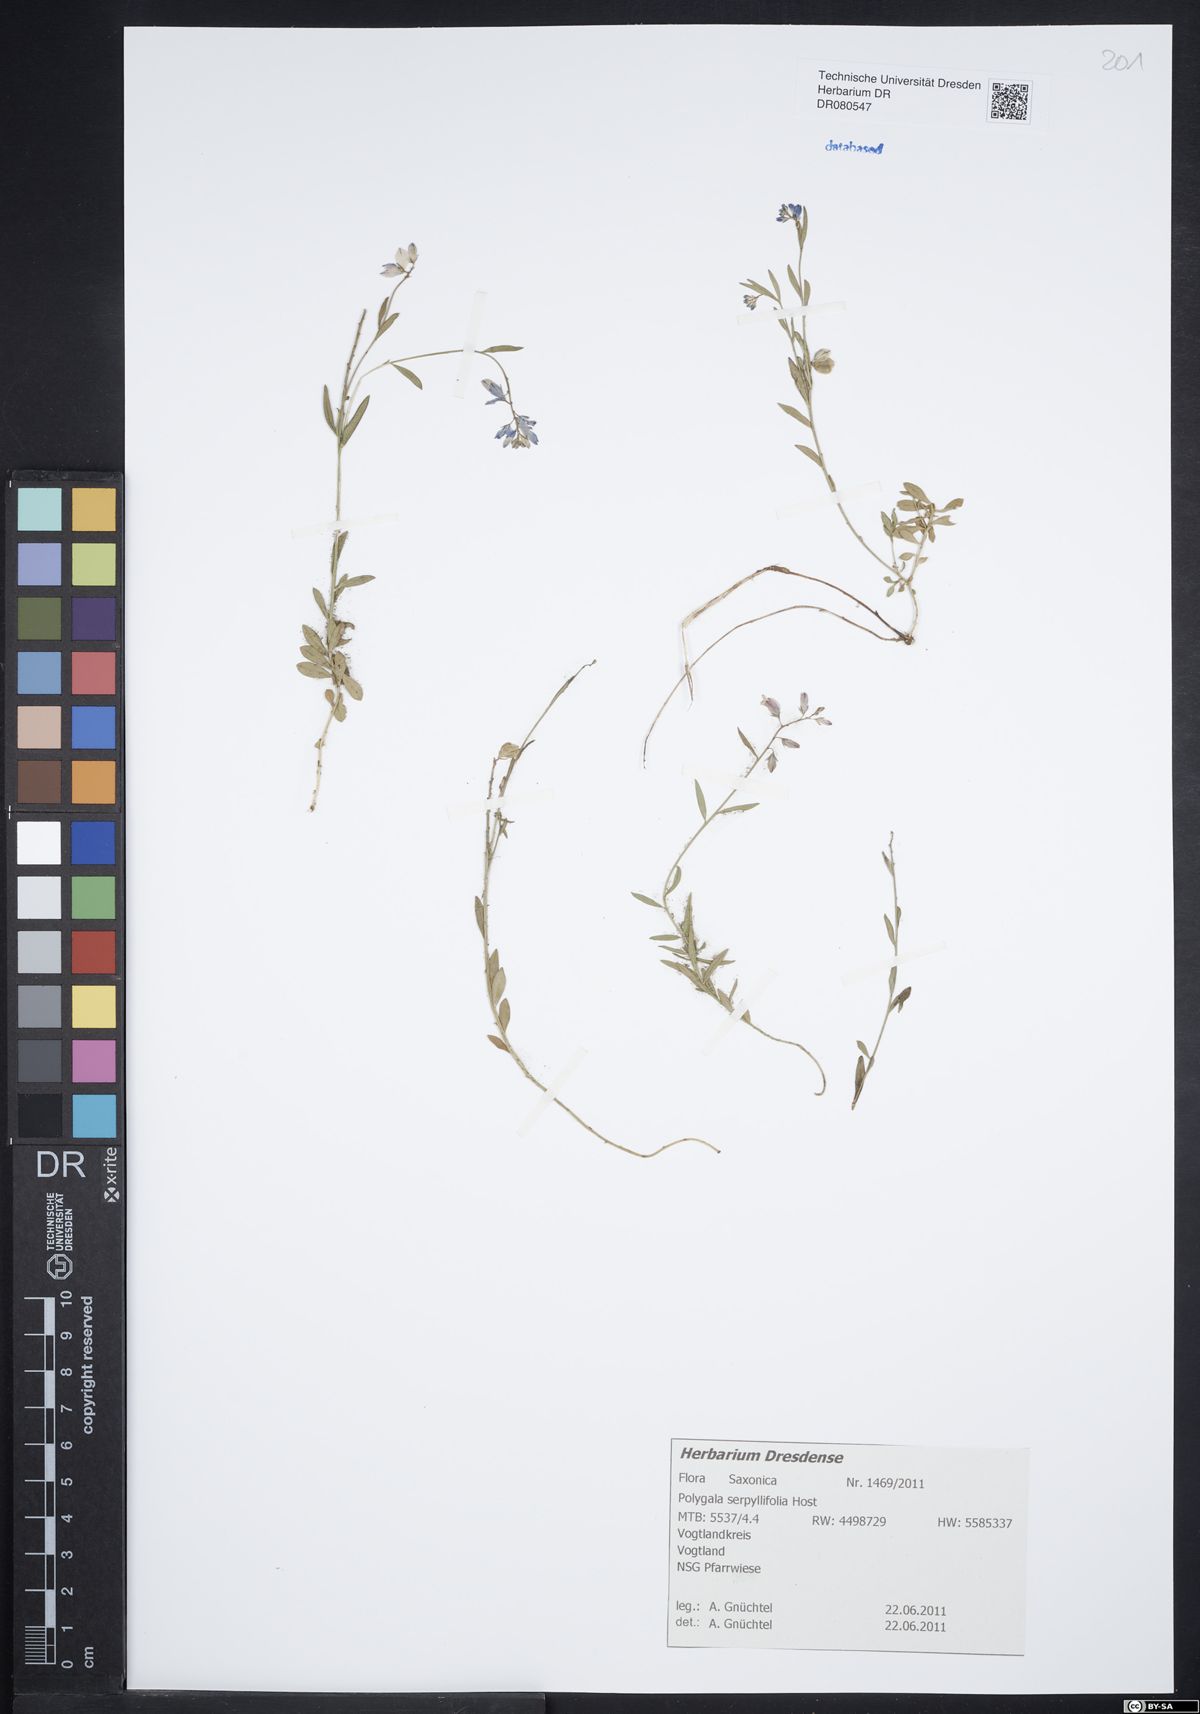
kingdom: Plantae
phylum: Tracheophyta
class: Magnoliopsida
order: Fabales
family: Polygalaceae
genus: Polygala
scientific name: Polygala serpyllifolia
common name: Heath milkwort
